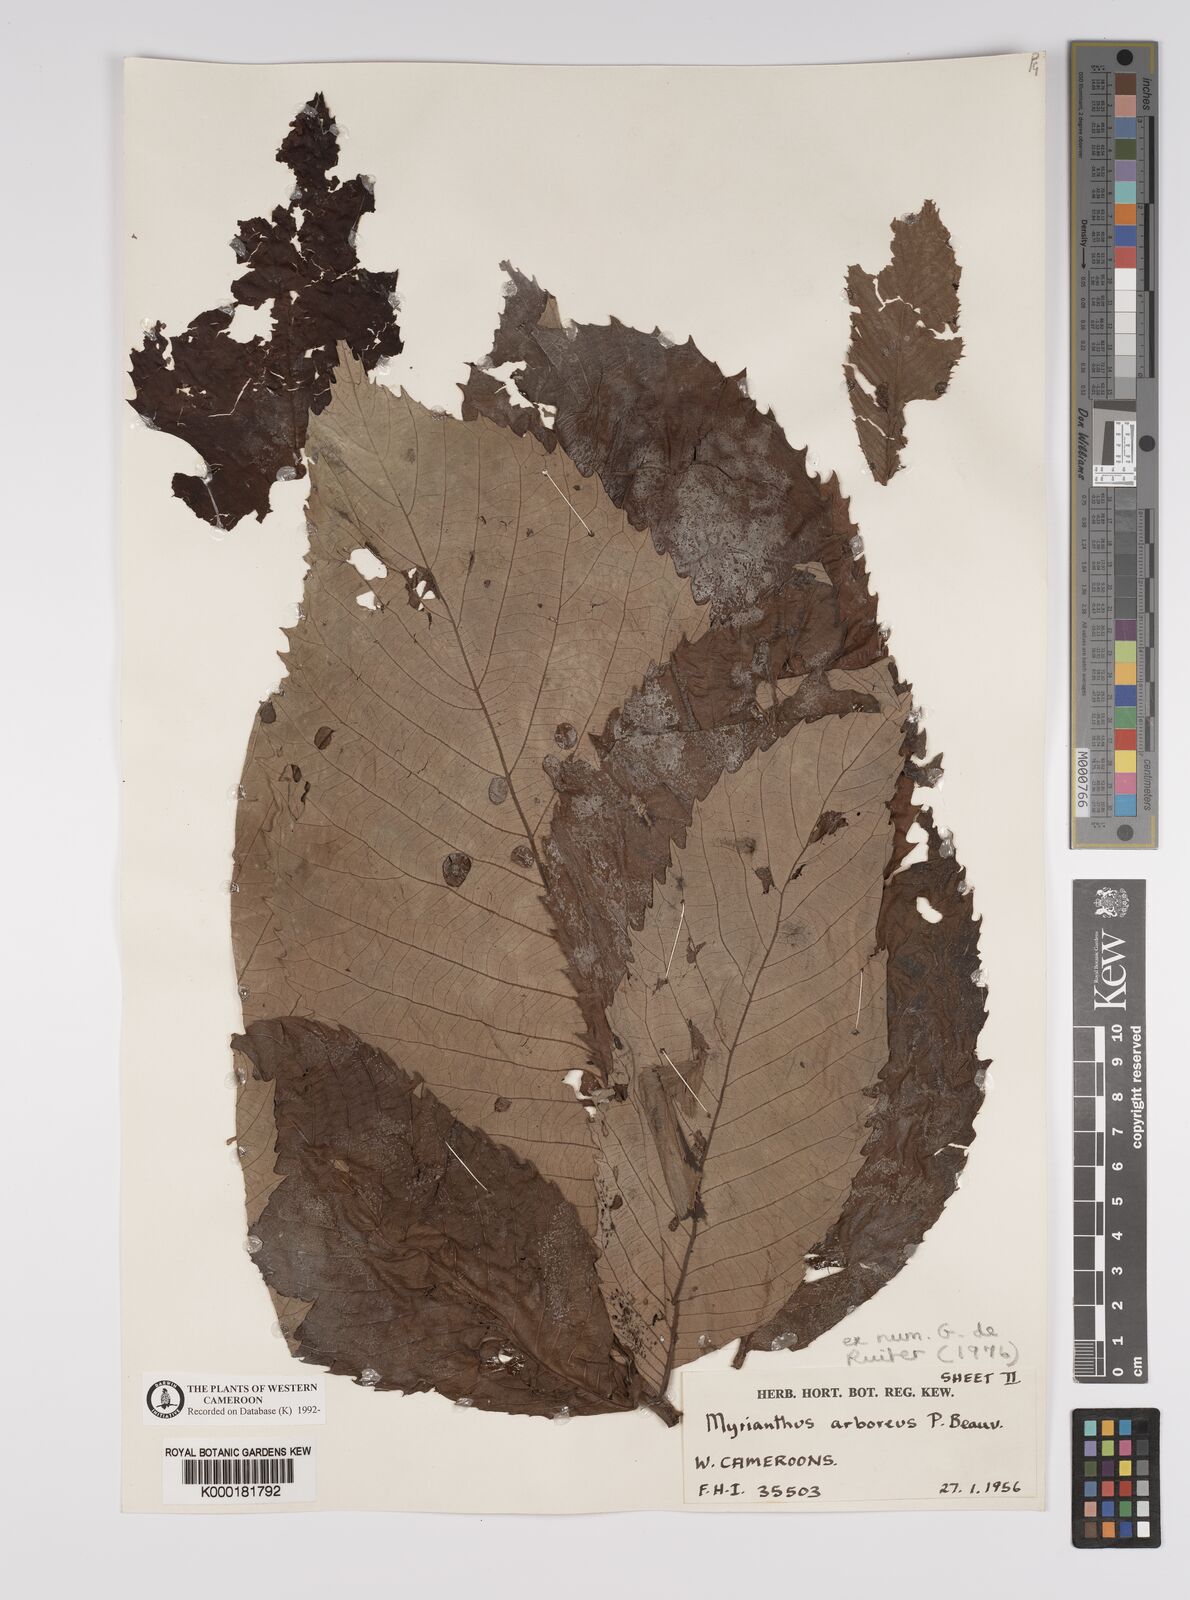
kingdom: Plantae
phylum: Tracheophyta
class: Magnoliopsida
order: Rosales
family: Urticaceae
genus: Myrianthus
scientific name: Myrianthus arboreus
